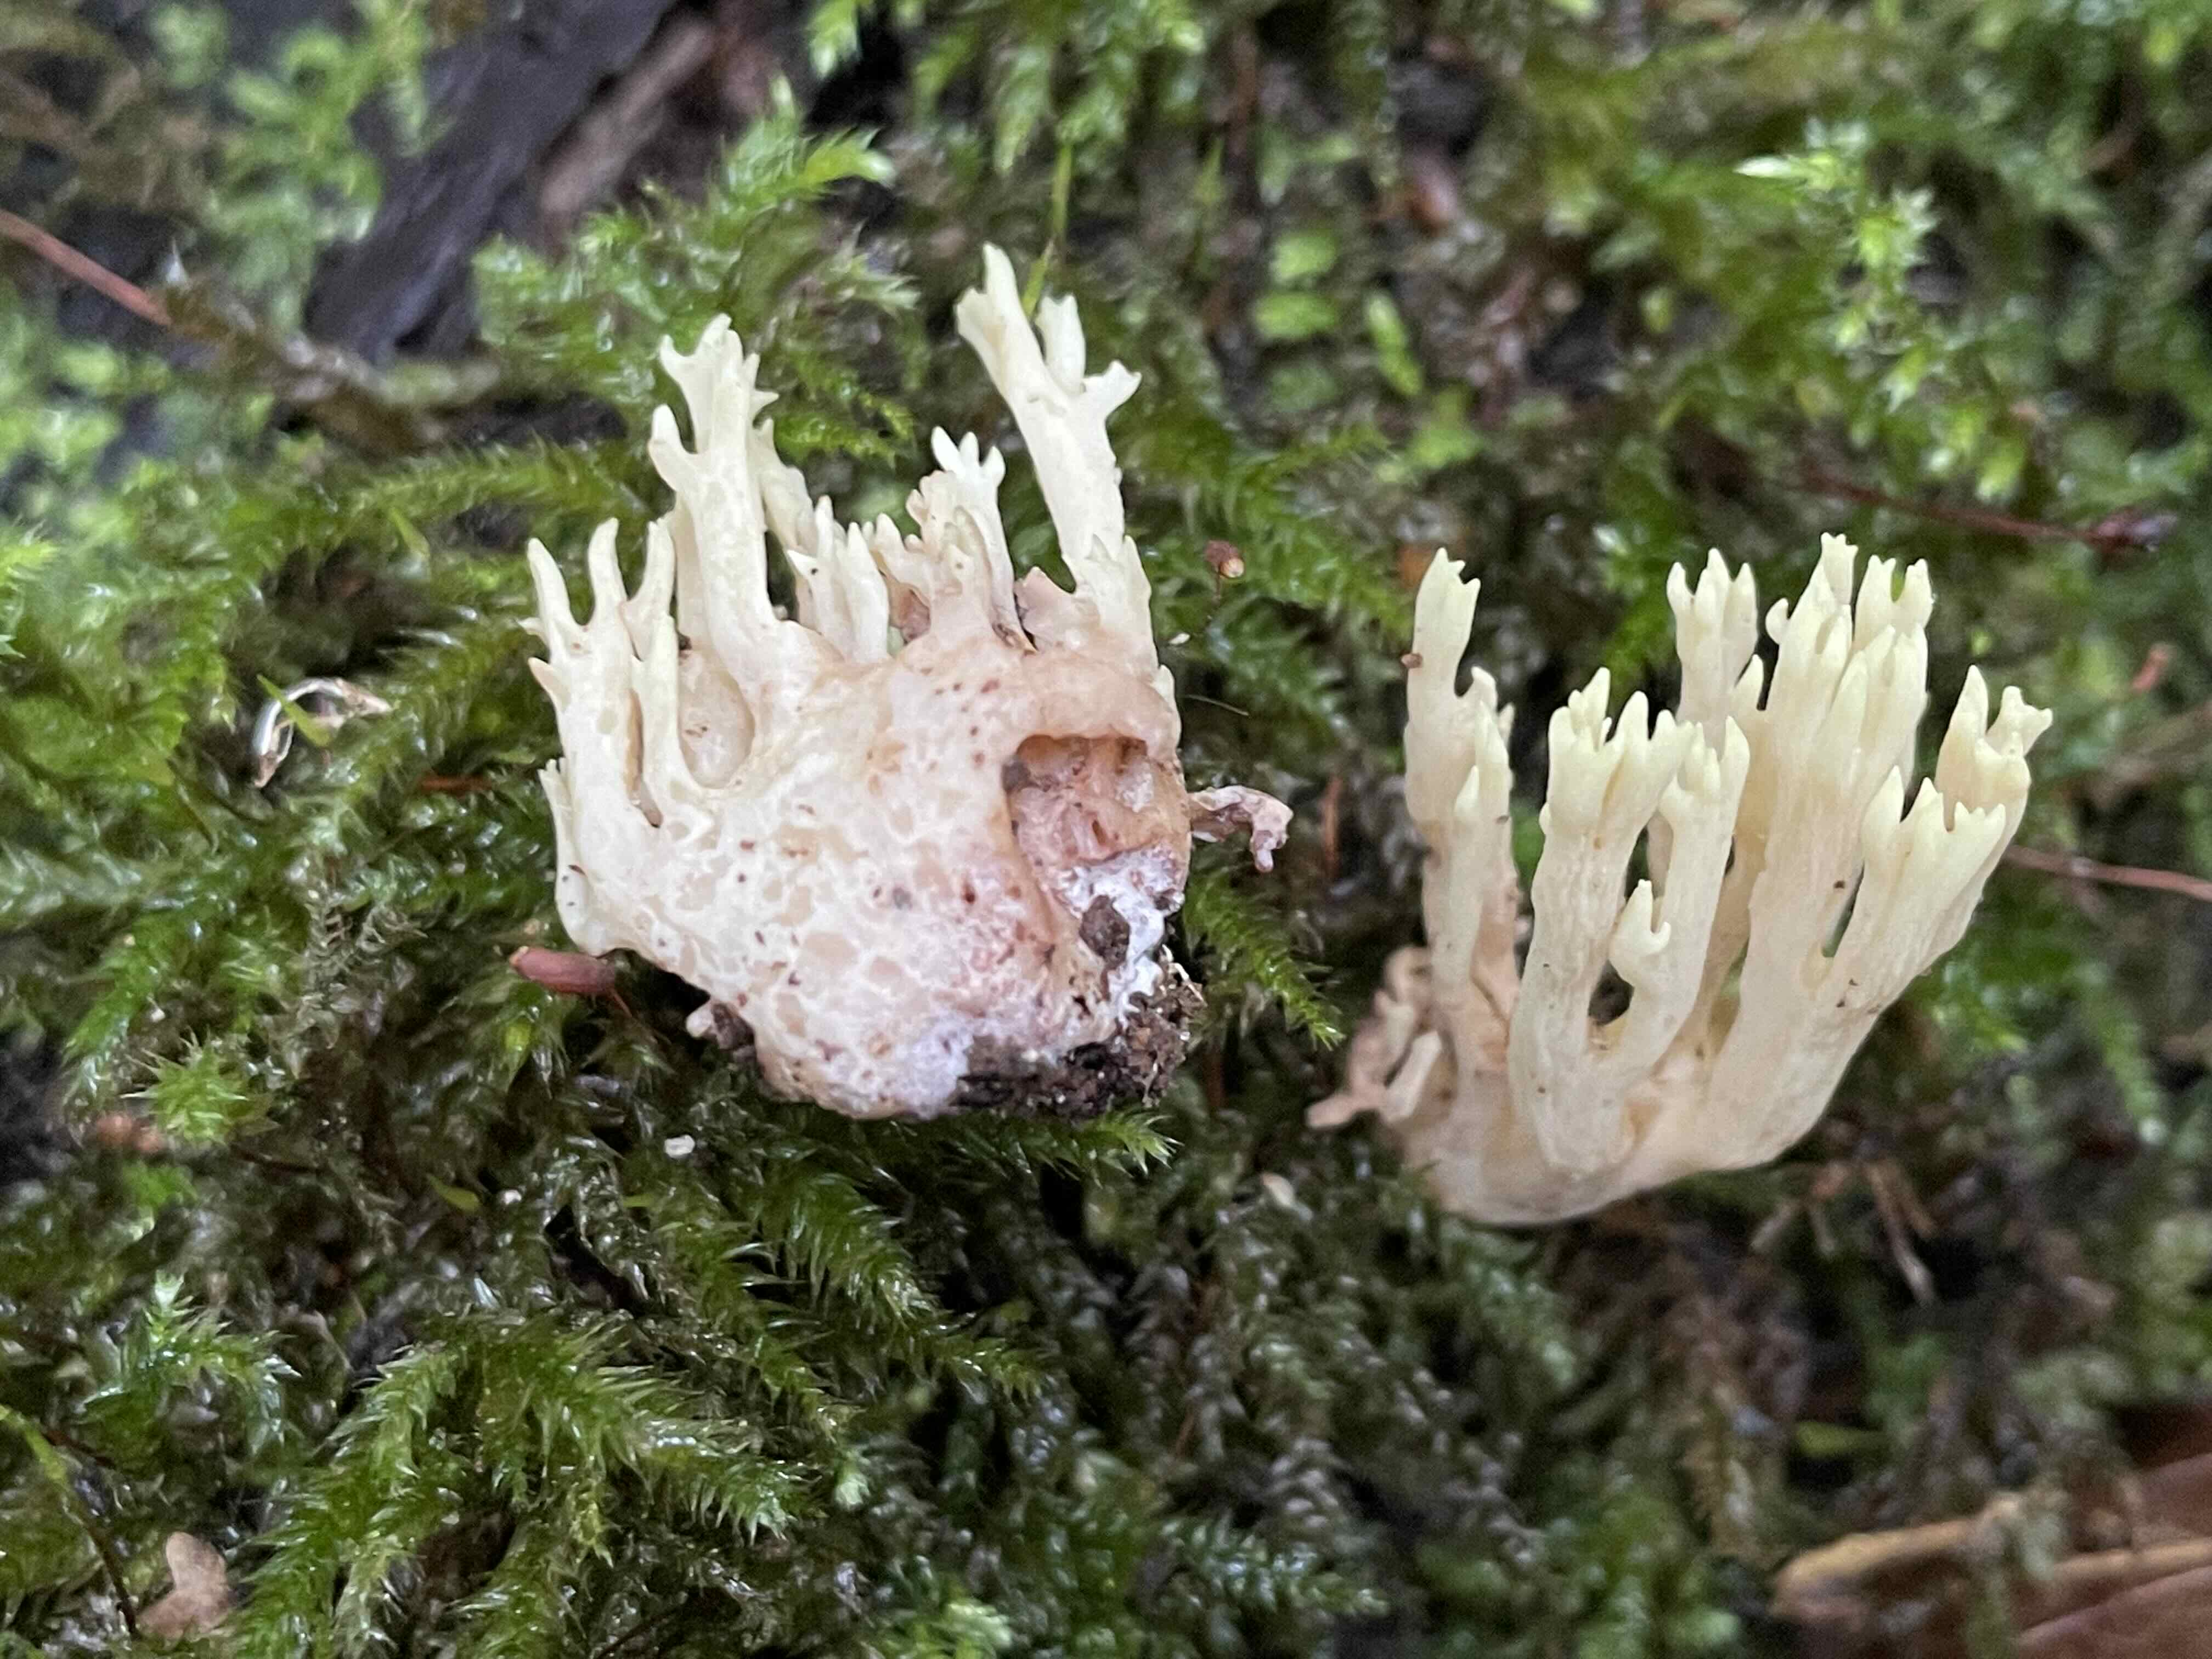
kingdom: Fungi
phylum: Basidiomycota
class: Agaricomycetes
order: Gomphales
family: Gomphaceae
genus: Ramaria
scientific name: Ramaria stricta
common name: rank koralsvamp
